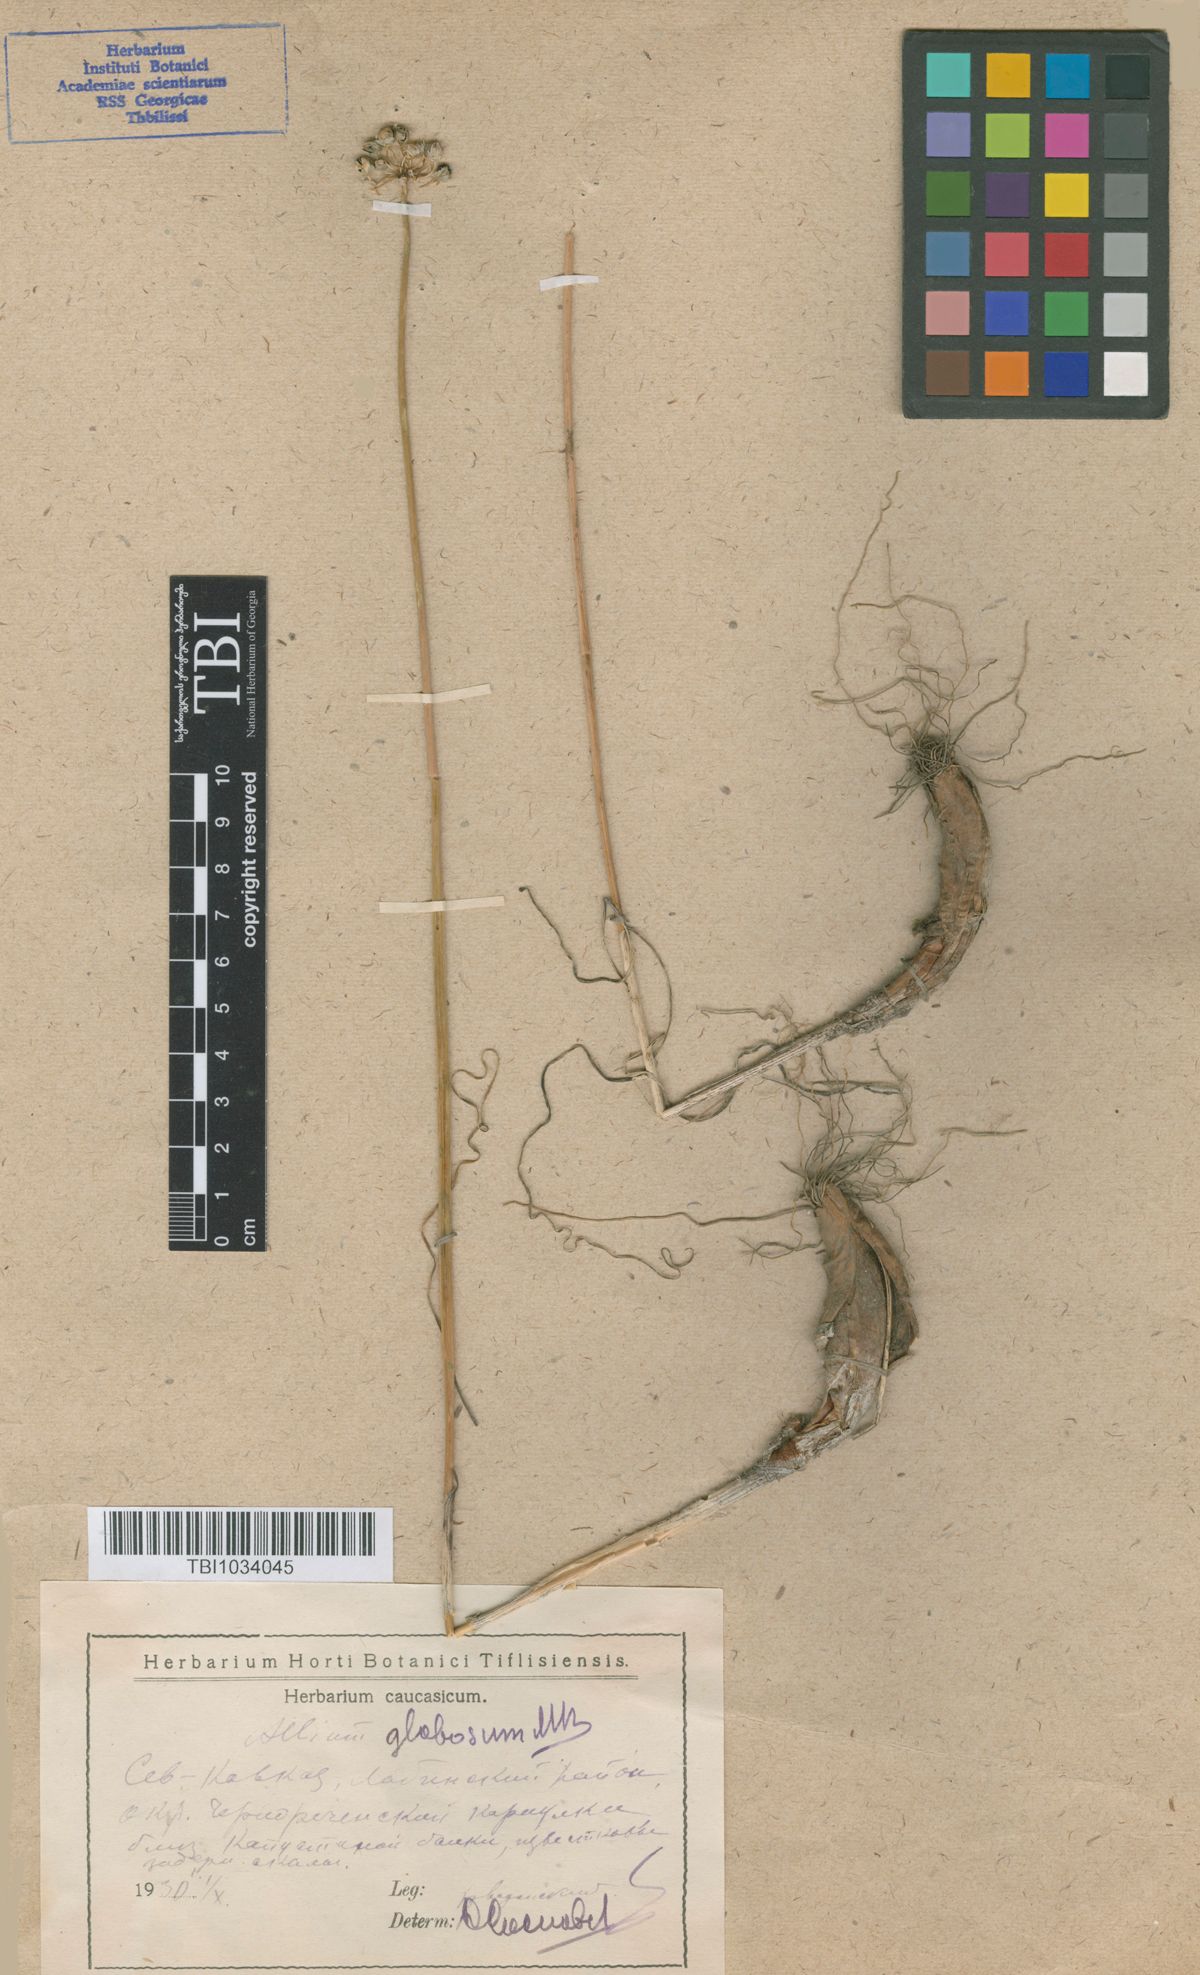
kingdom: Plantae
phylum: Tracheophyta
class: Liliopsida
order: Asparagales
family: Amaryllidaceae
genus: Allium
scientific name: Allium saxatile
